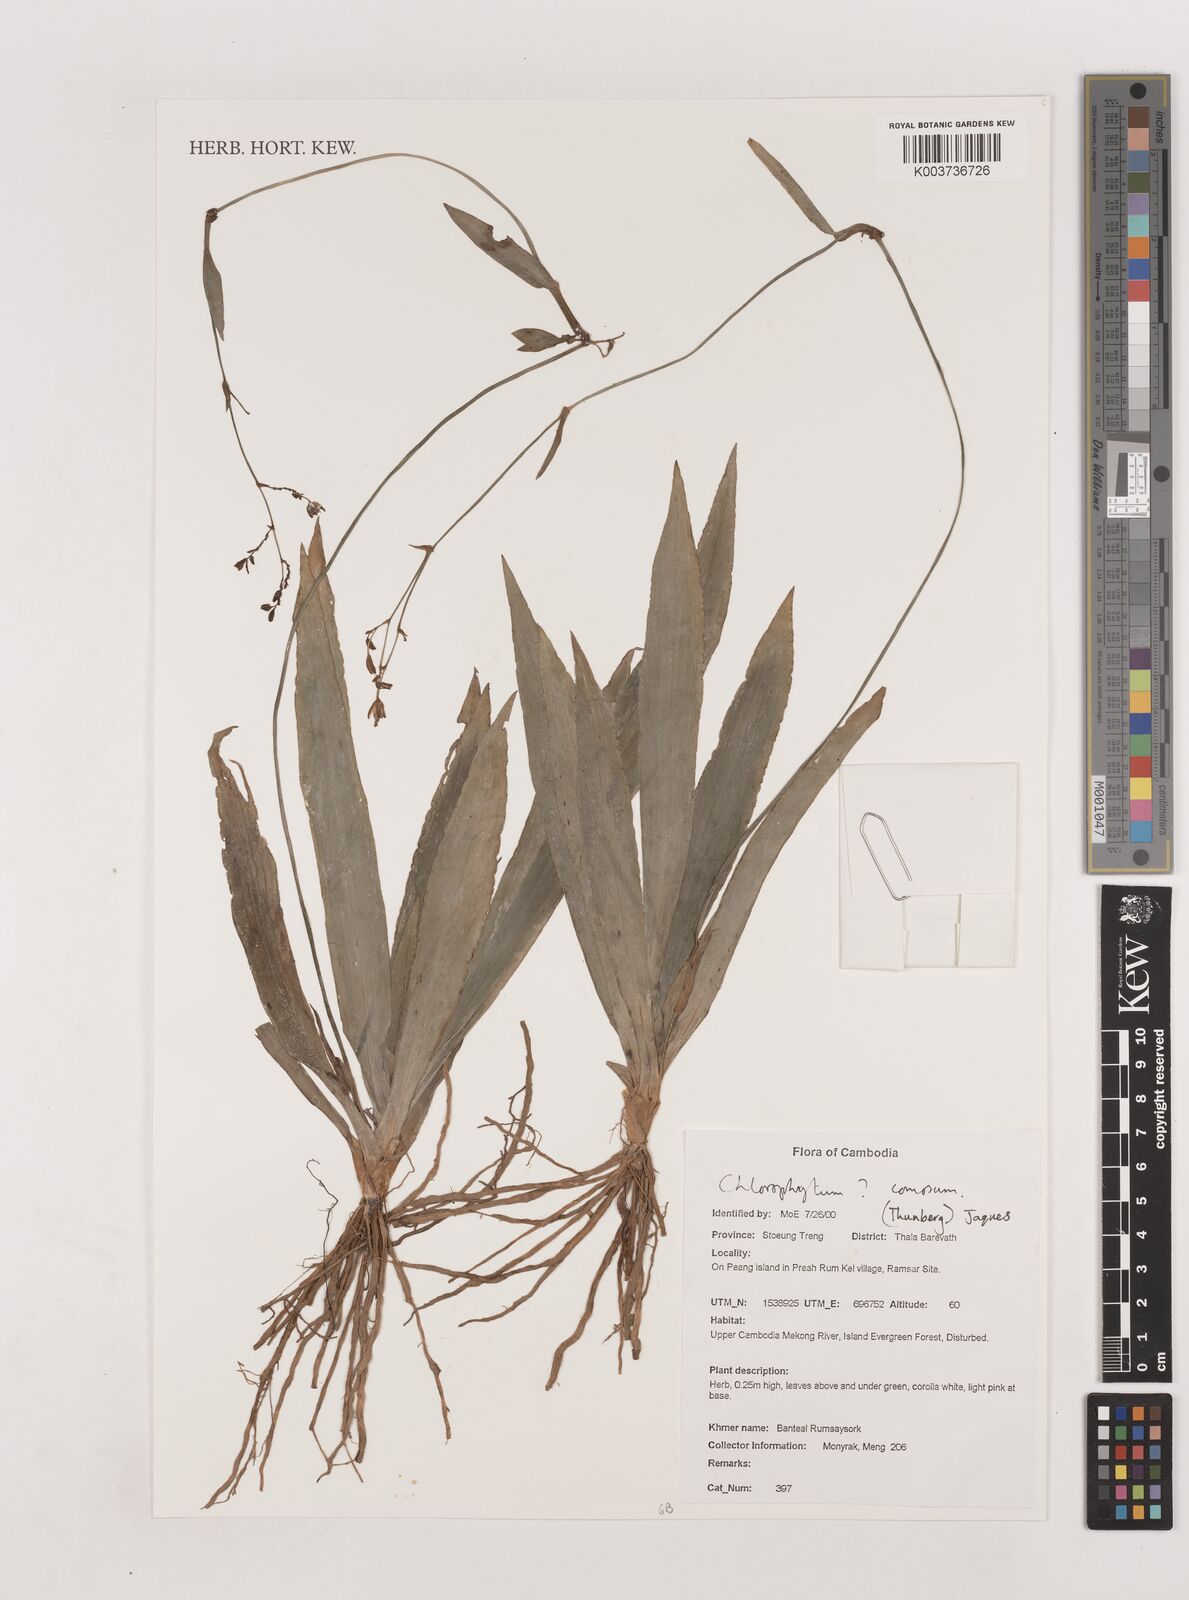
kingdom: Plantae
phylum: Tracheophyta
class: Liliopsida
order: Asparagales
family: Asparagaceae
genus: Chlorophytum
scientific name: Chlorophytum
